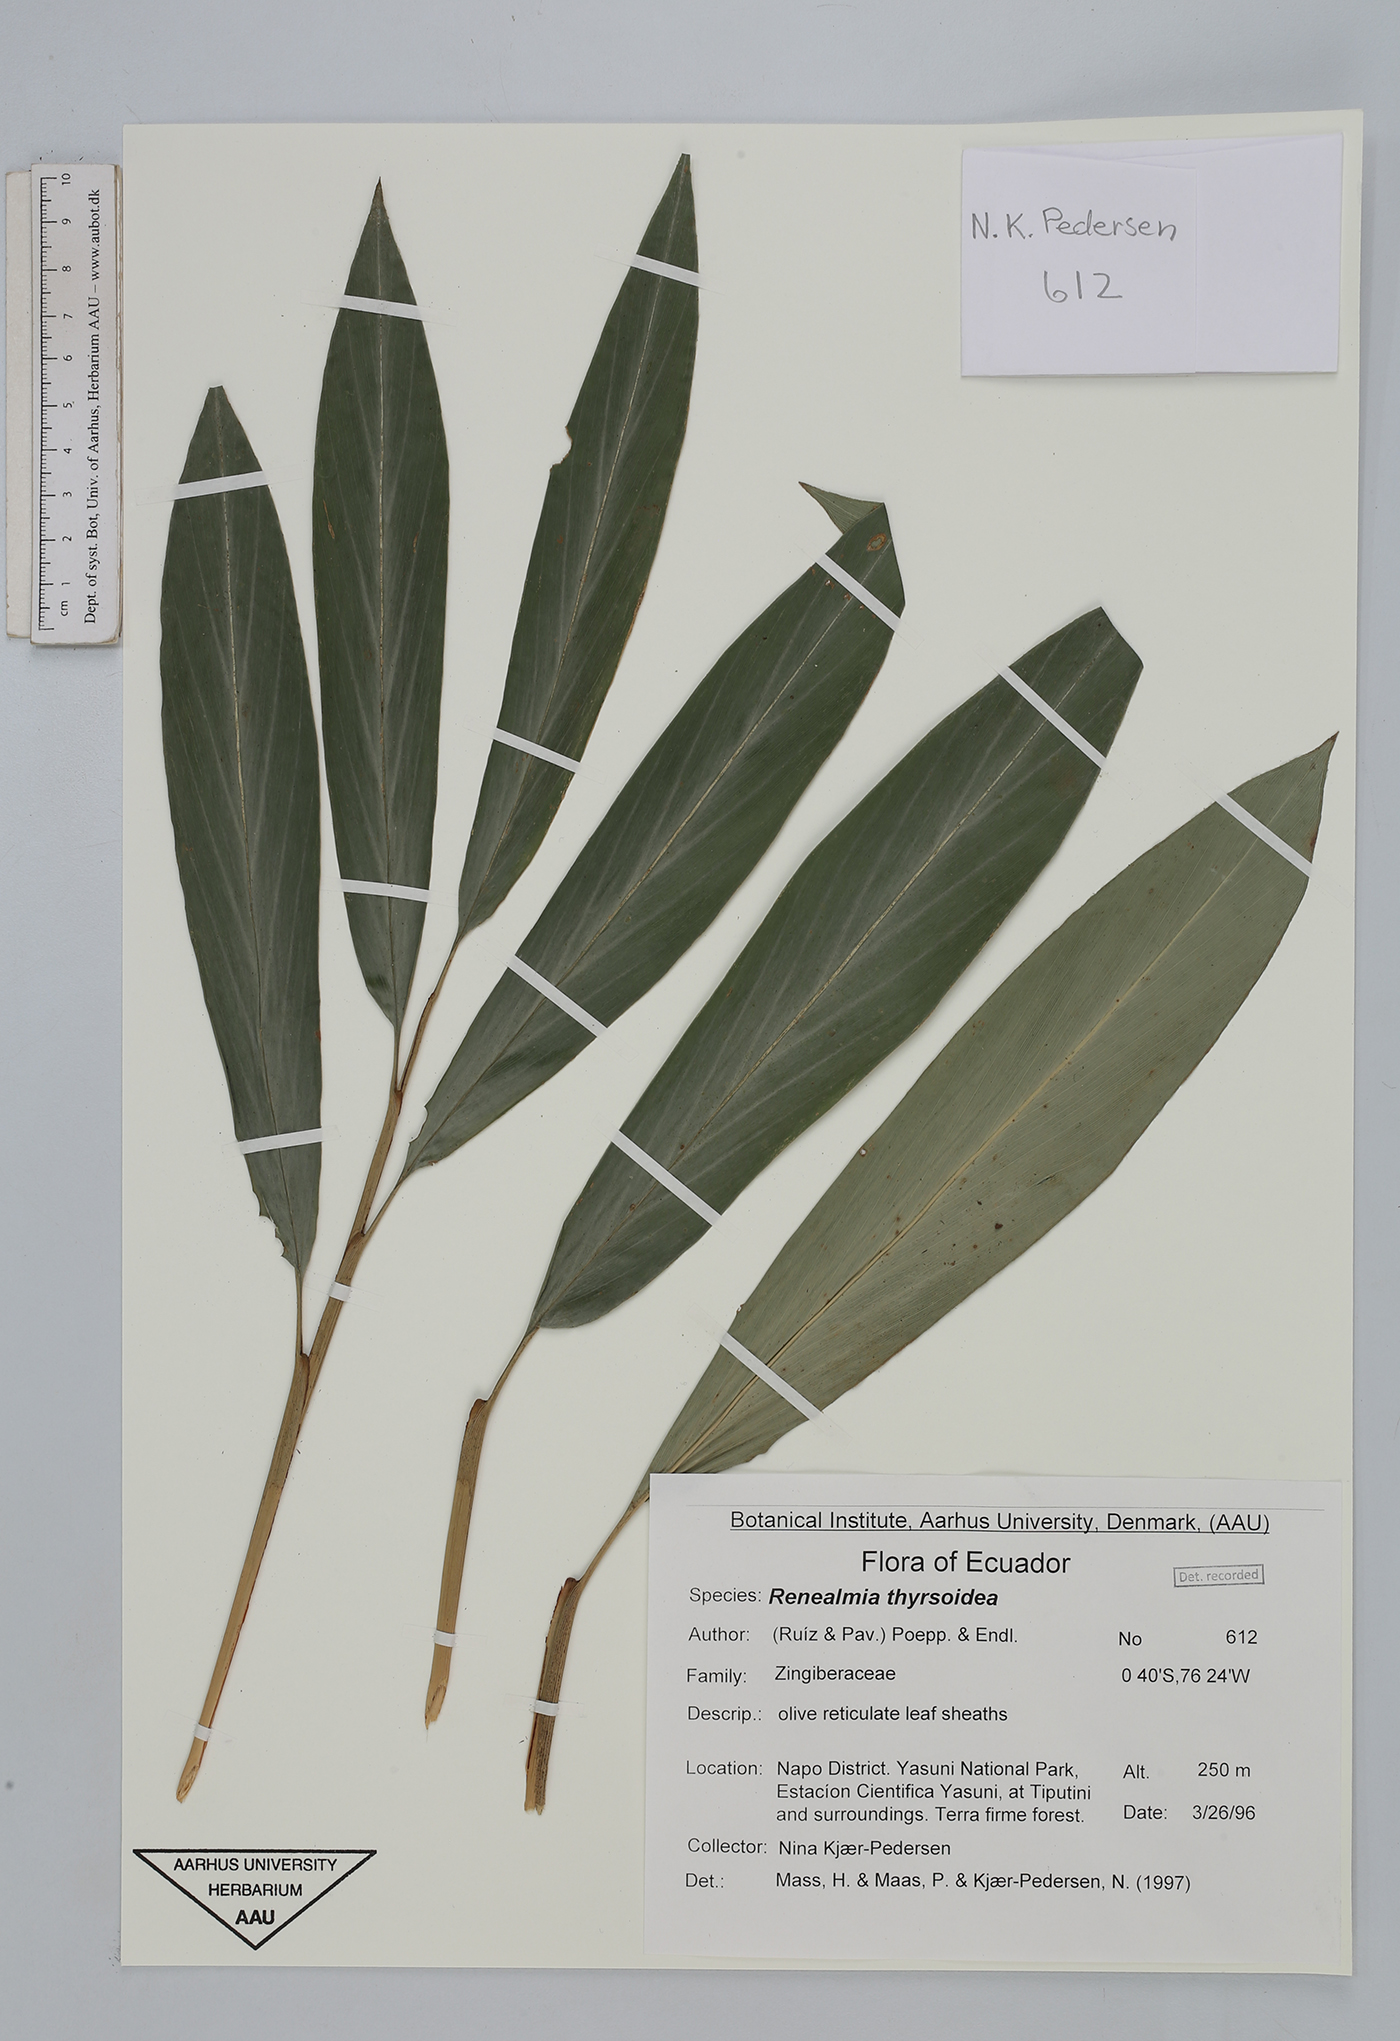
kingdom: Plantae
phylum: Tracheophyta
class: Liliopsida
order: Zingiberales
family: Zingiberaceae
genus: Renealmia
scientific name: Renealmia thyrsoidea
